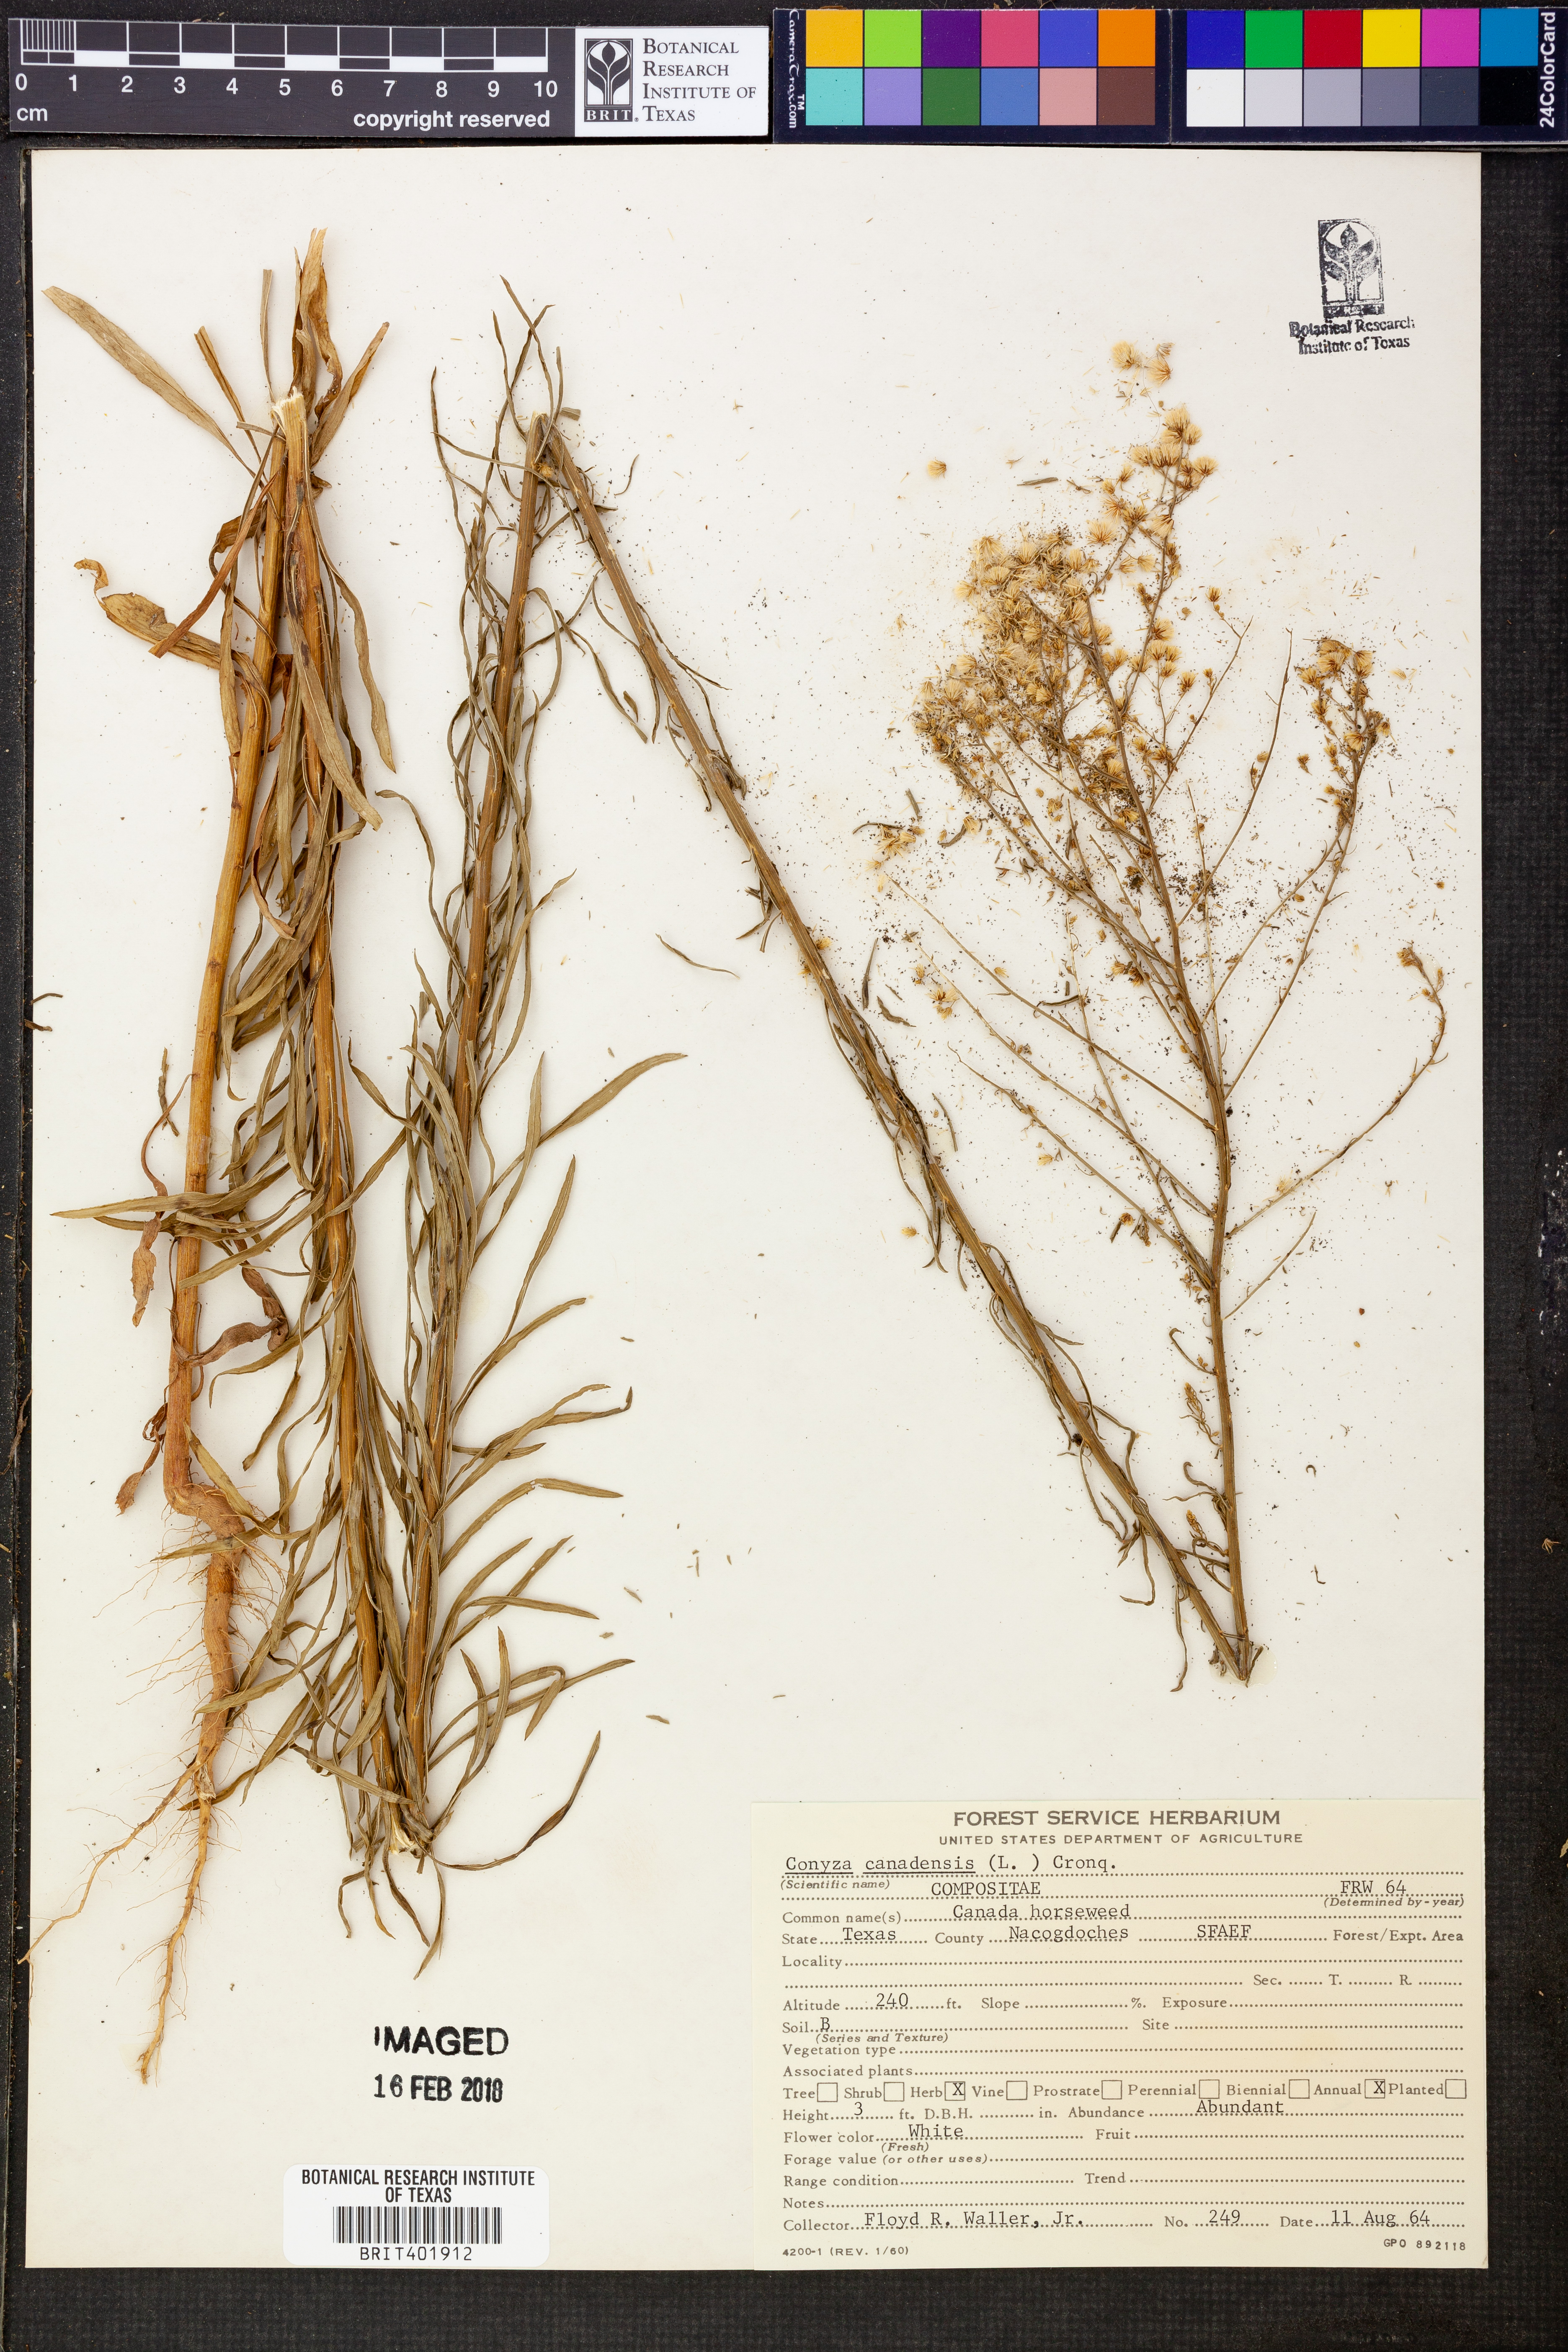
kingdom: Plantae
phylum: Tracheophyta
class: Magnoliopsida
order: Asterales
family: Asteraceae
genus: Erigeron
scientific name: Erigeron canadensis
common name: Canadian fleabane
